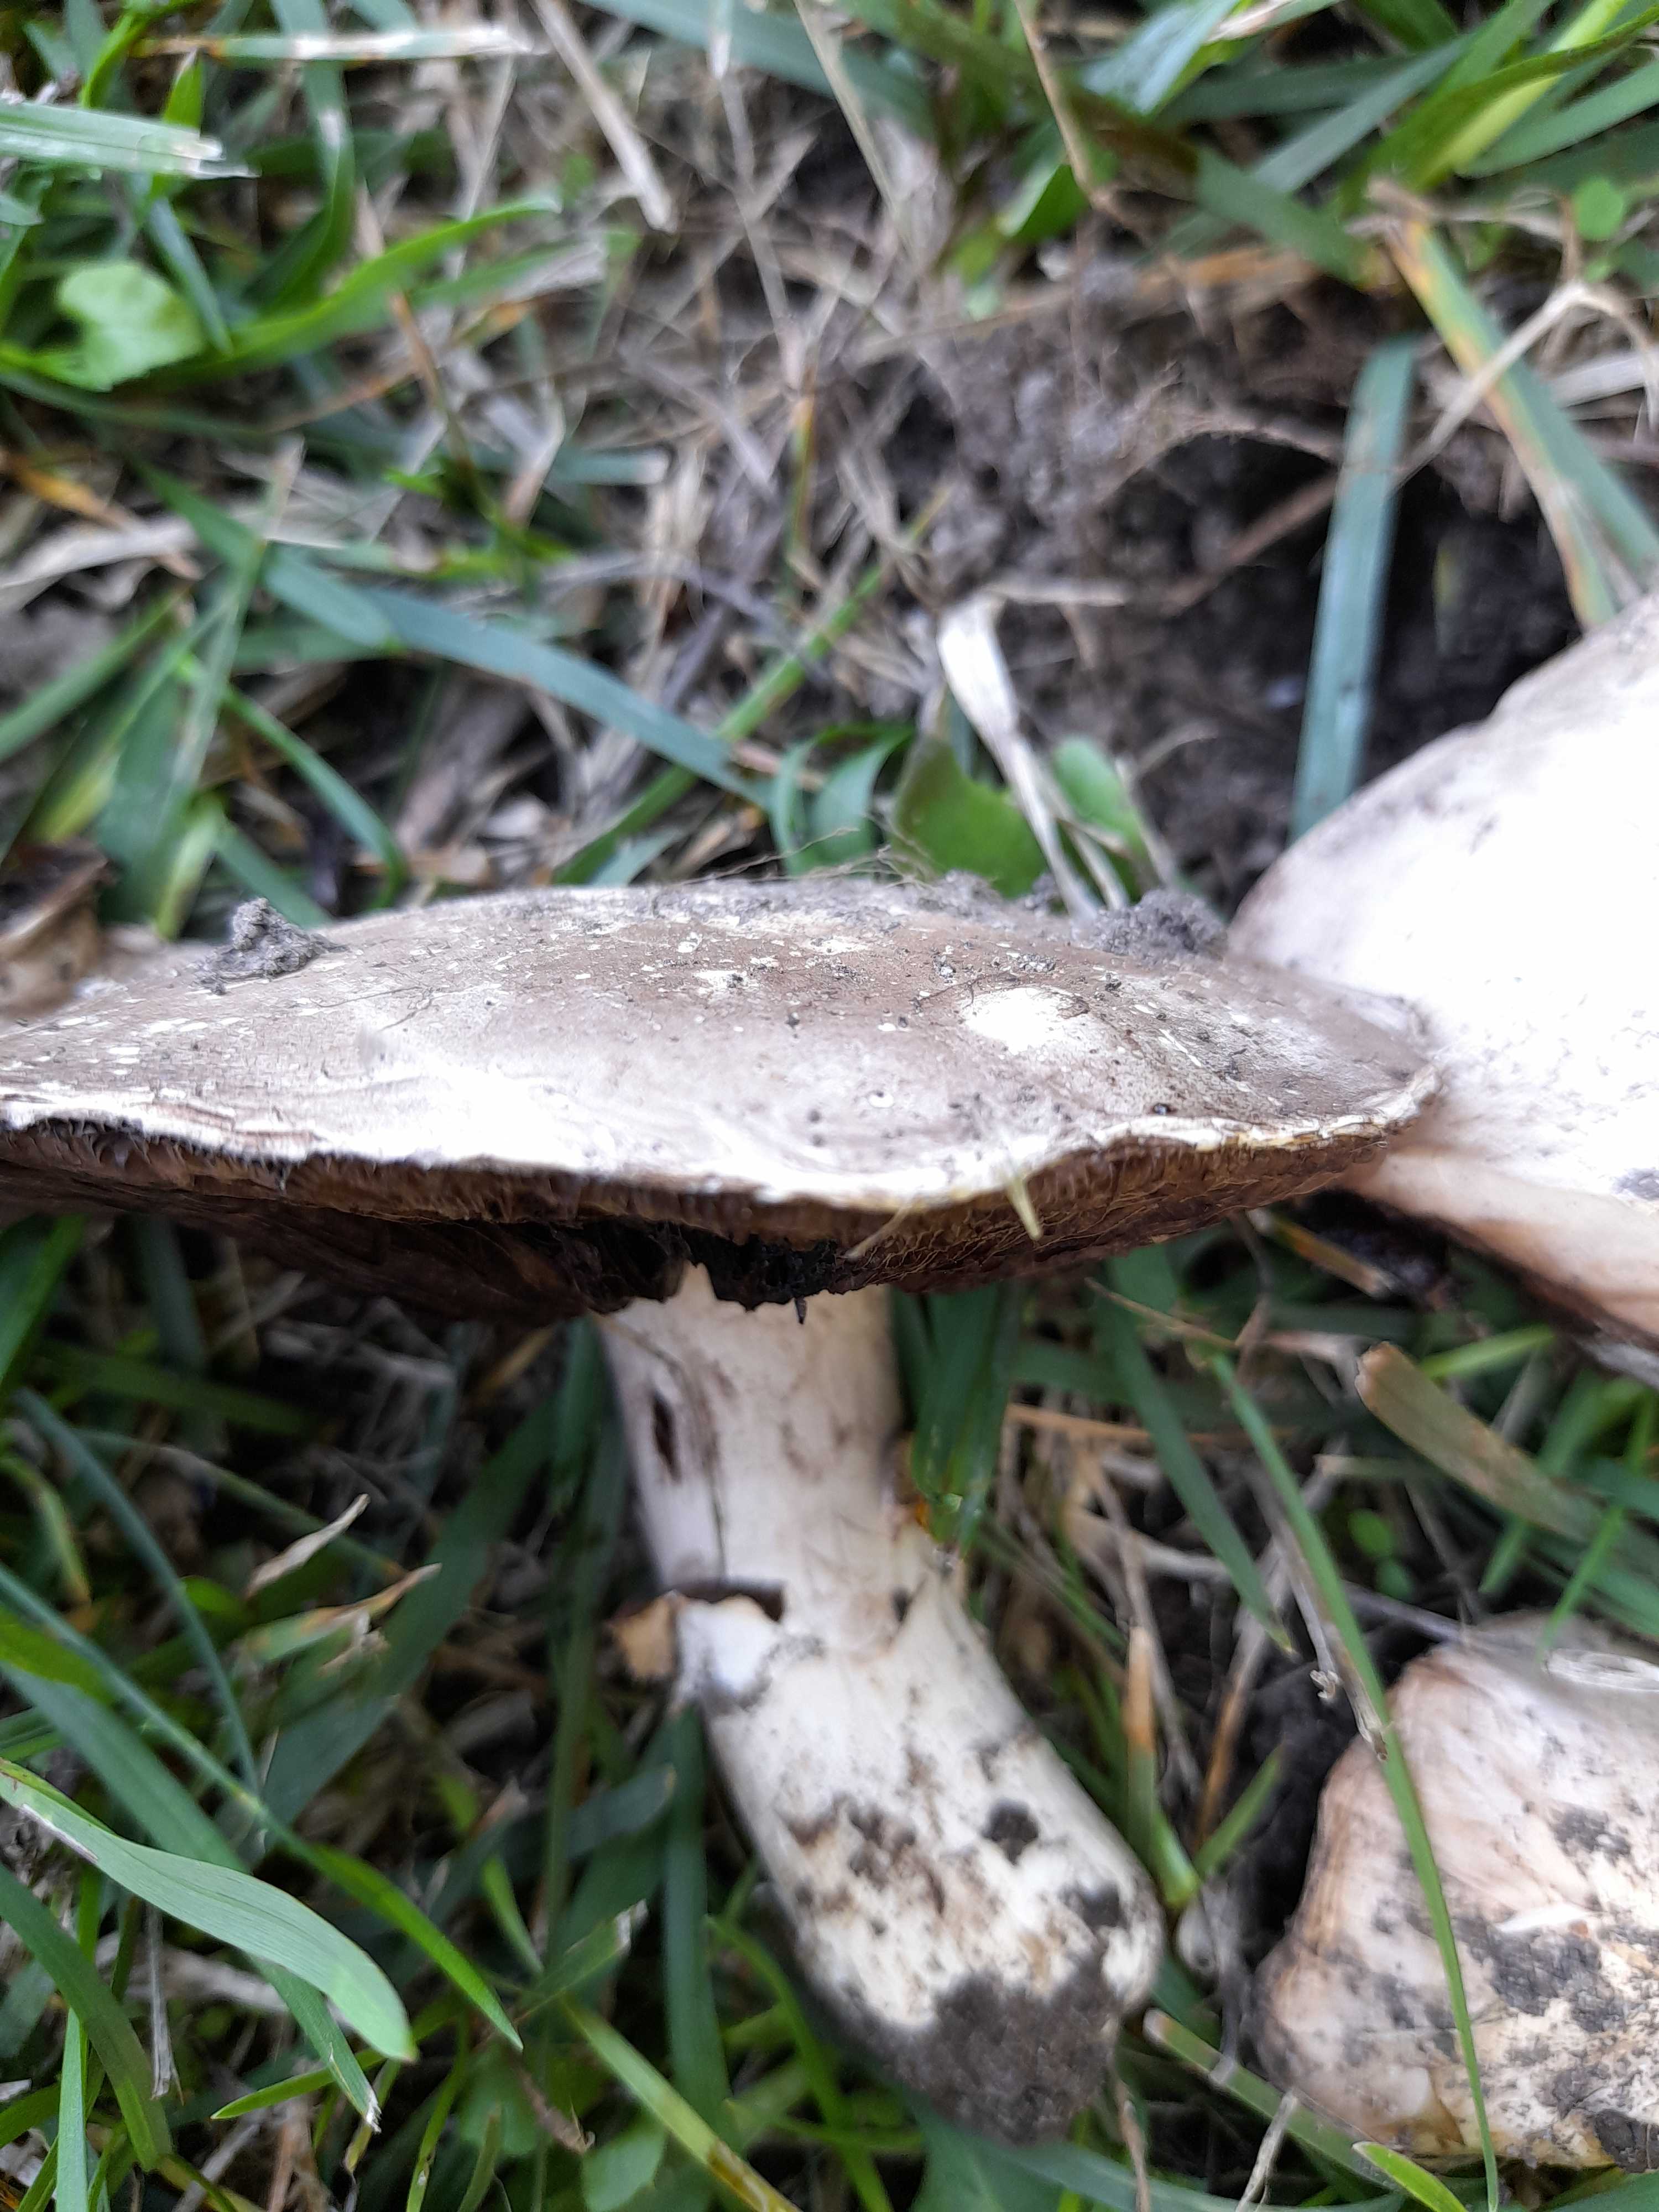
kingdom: Fungi
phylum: Basidiomycota
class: Agaricomycetes
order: Agaricales
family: Agaricaceae
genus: Agaricus
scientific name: Agaricus bitorquis
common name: vej-champignon
